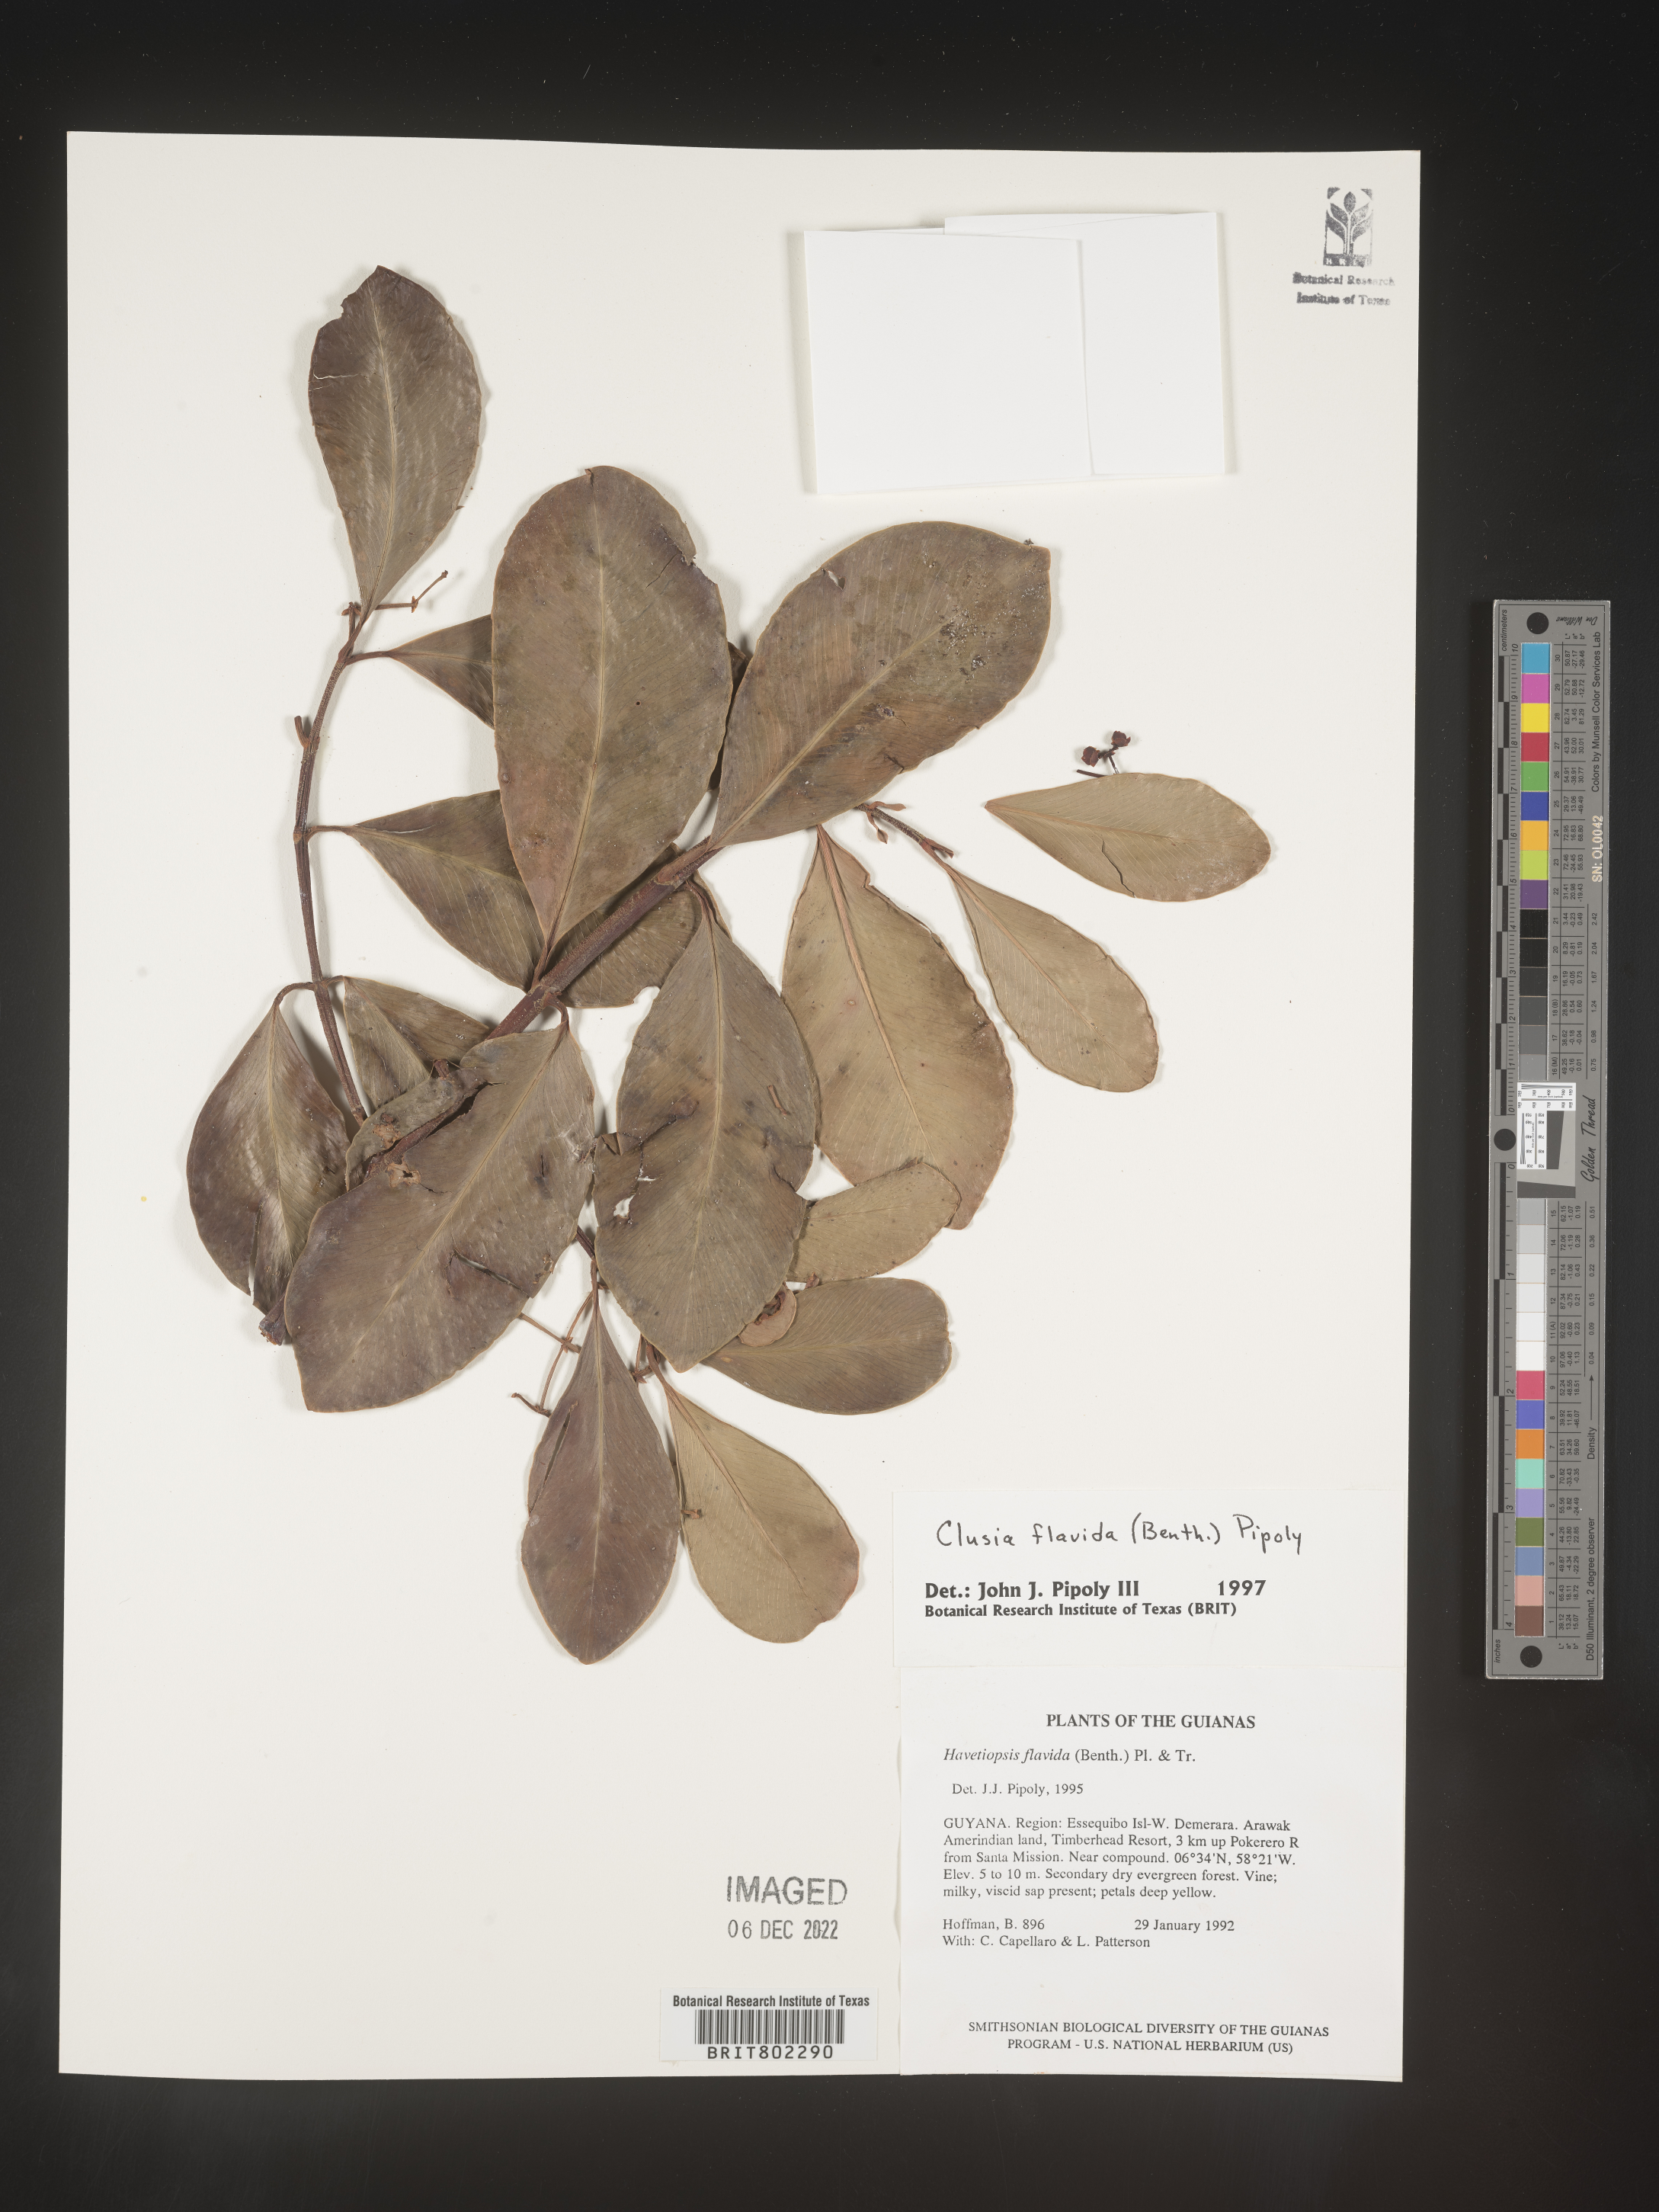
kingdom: Plantae
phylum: Tracheophyta
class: Magnoliopsida
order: Malpighiales
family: Clusiaceae
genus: Clusia
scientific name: Clusia flavida
